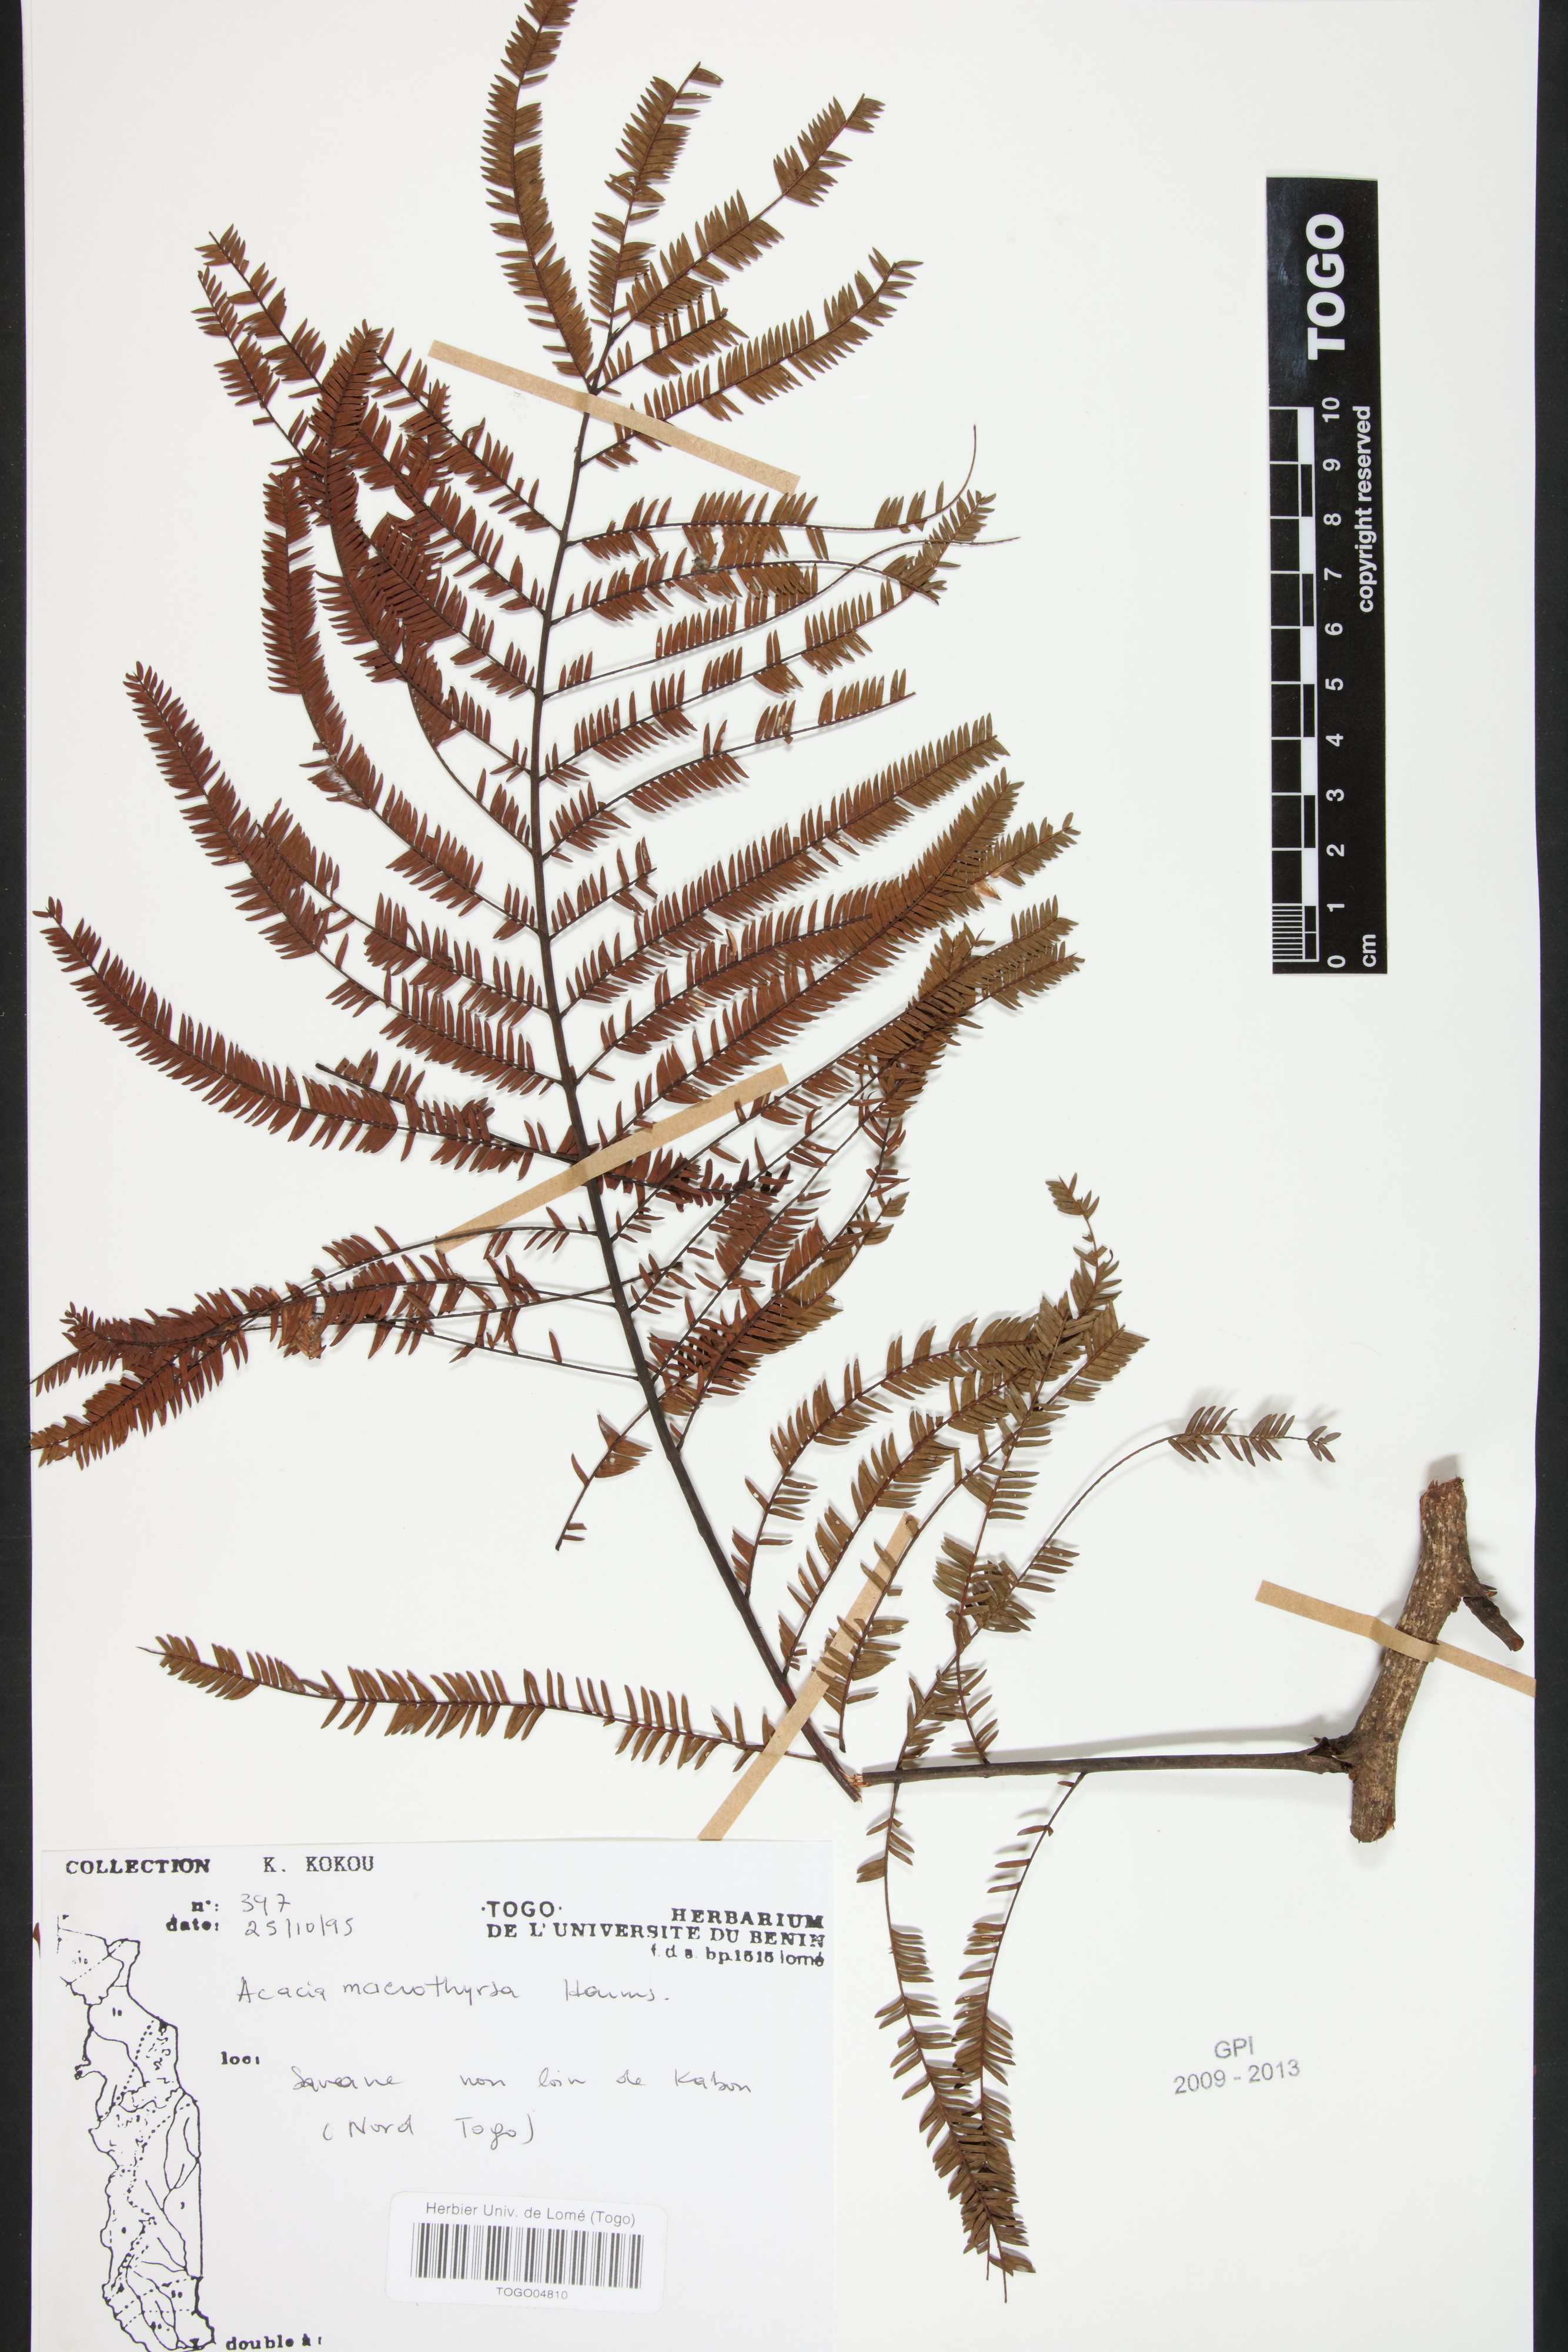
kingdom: Plantae
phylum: Tracheophyta
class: Magnoliopsida
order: Fabales
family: Fabaceae
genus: Vachellia
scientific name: Vachellia amythethophylla
